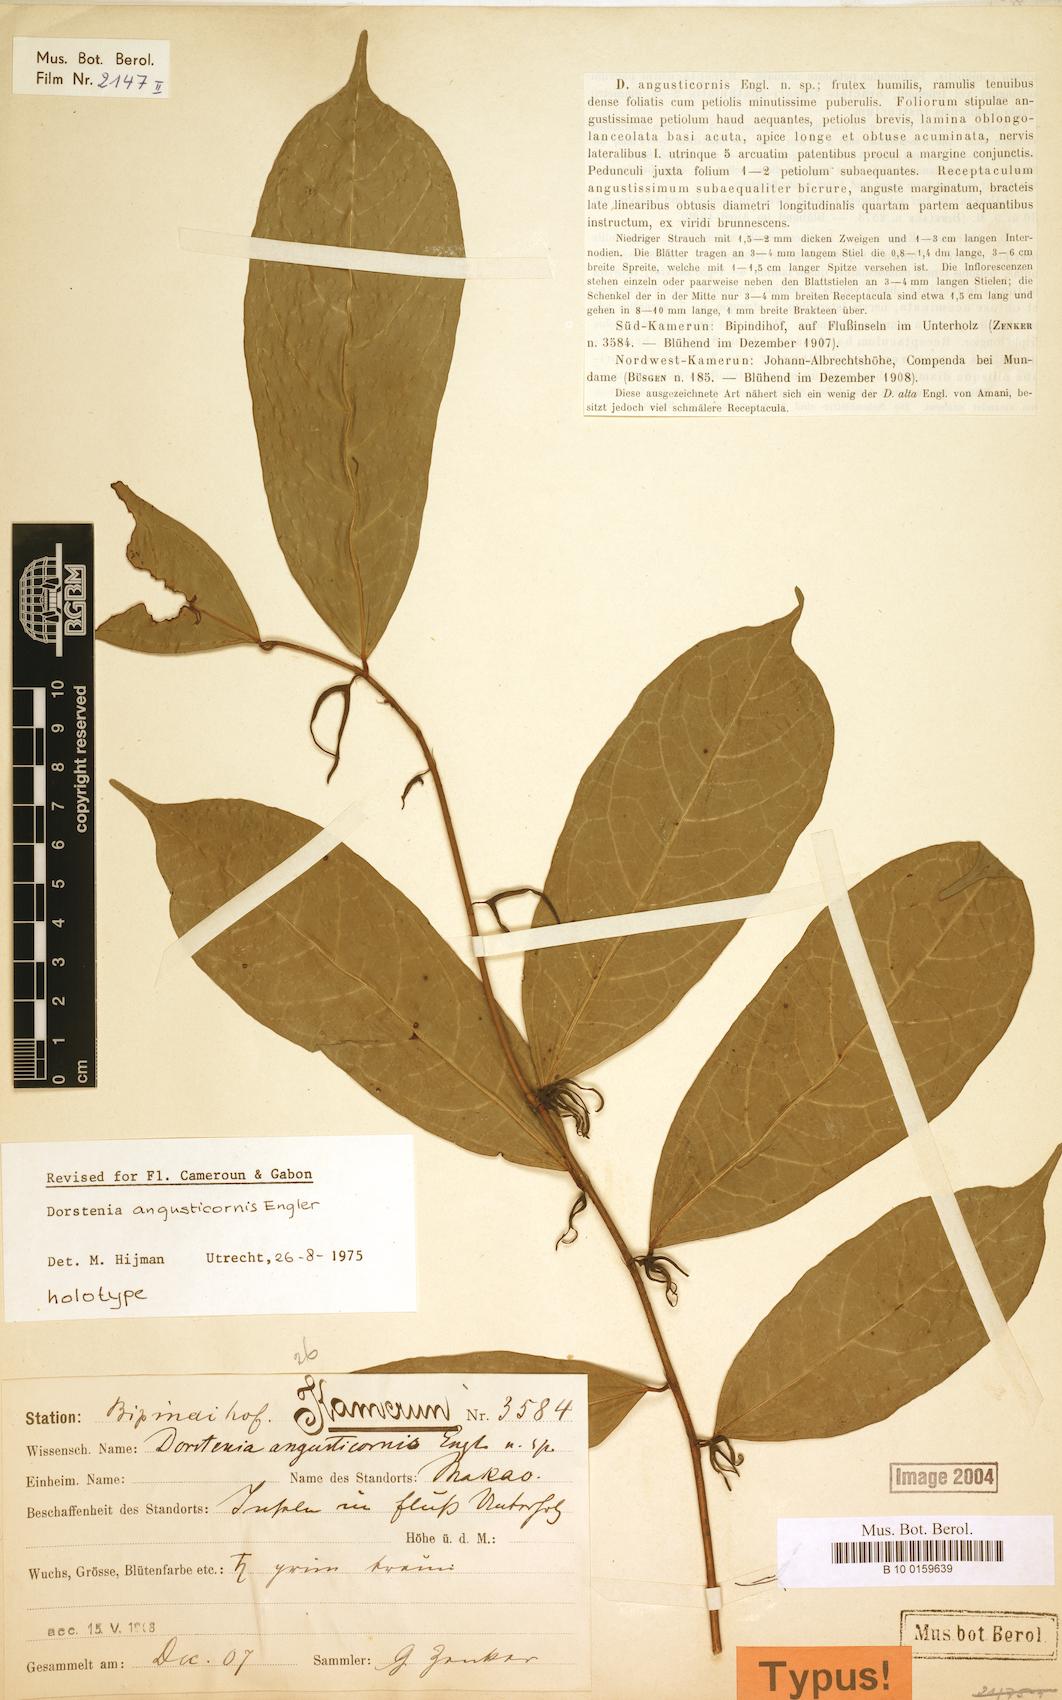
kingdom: Plantae
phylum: Tracheophyta
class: Magnoliopsida
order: Rosales
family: Moraceae
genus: Hijmania
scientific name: Hijmania angusticornis
